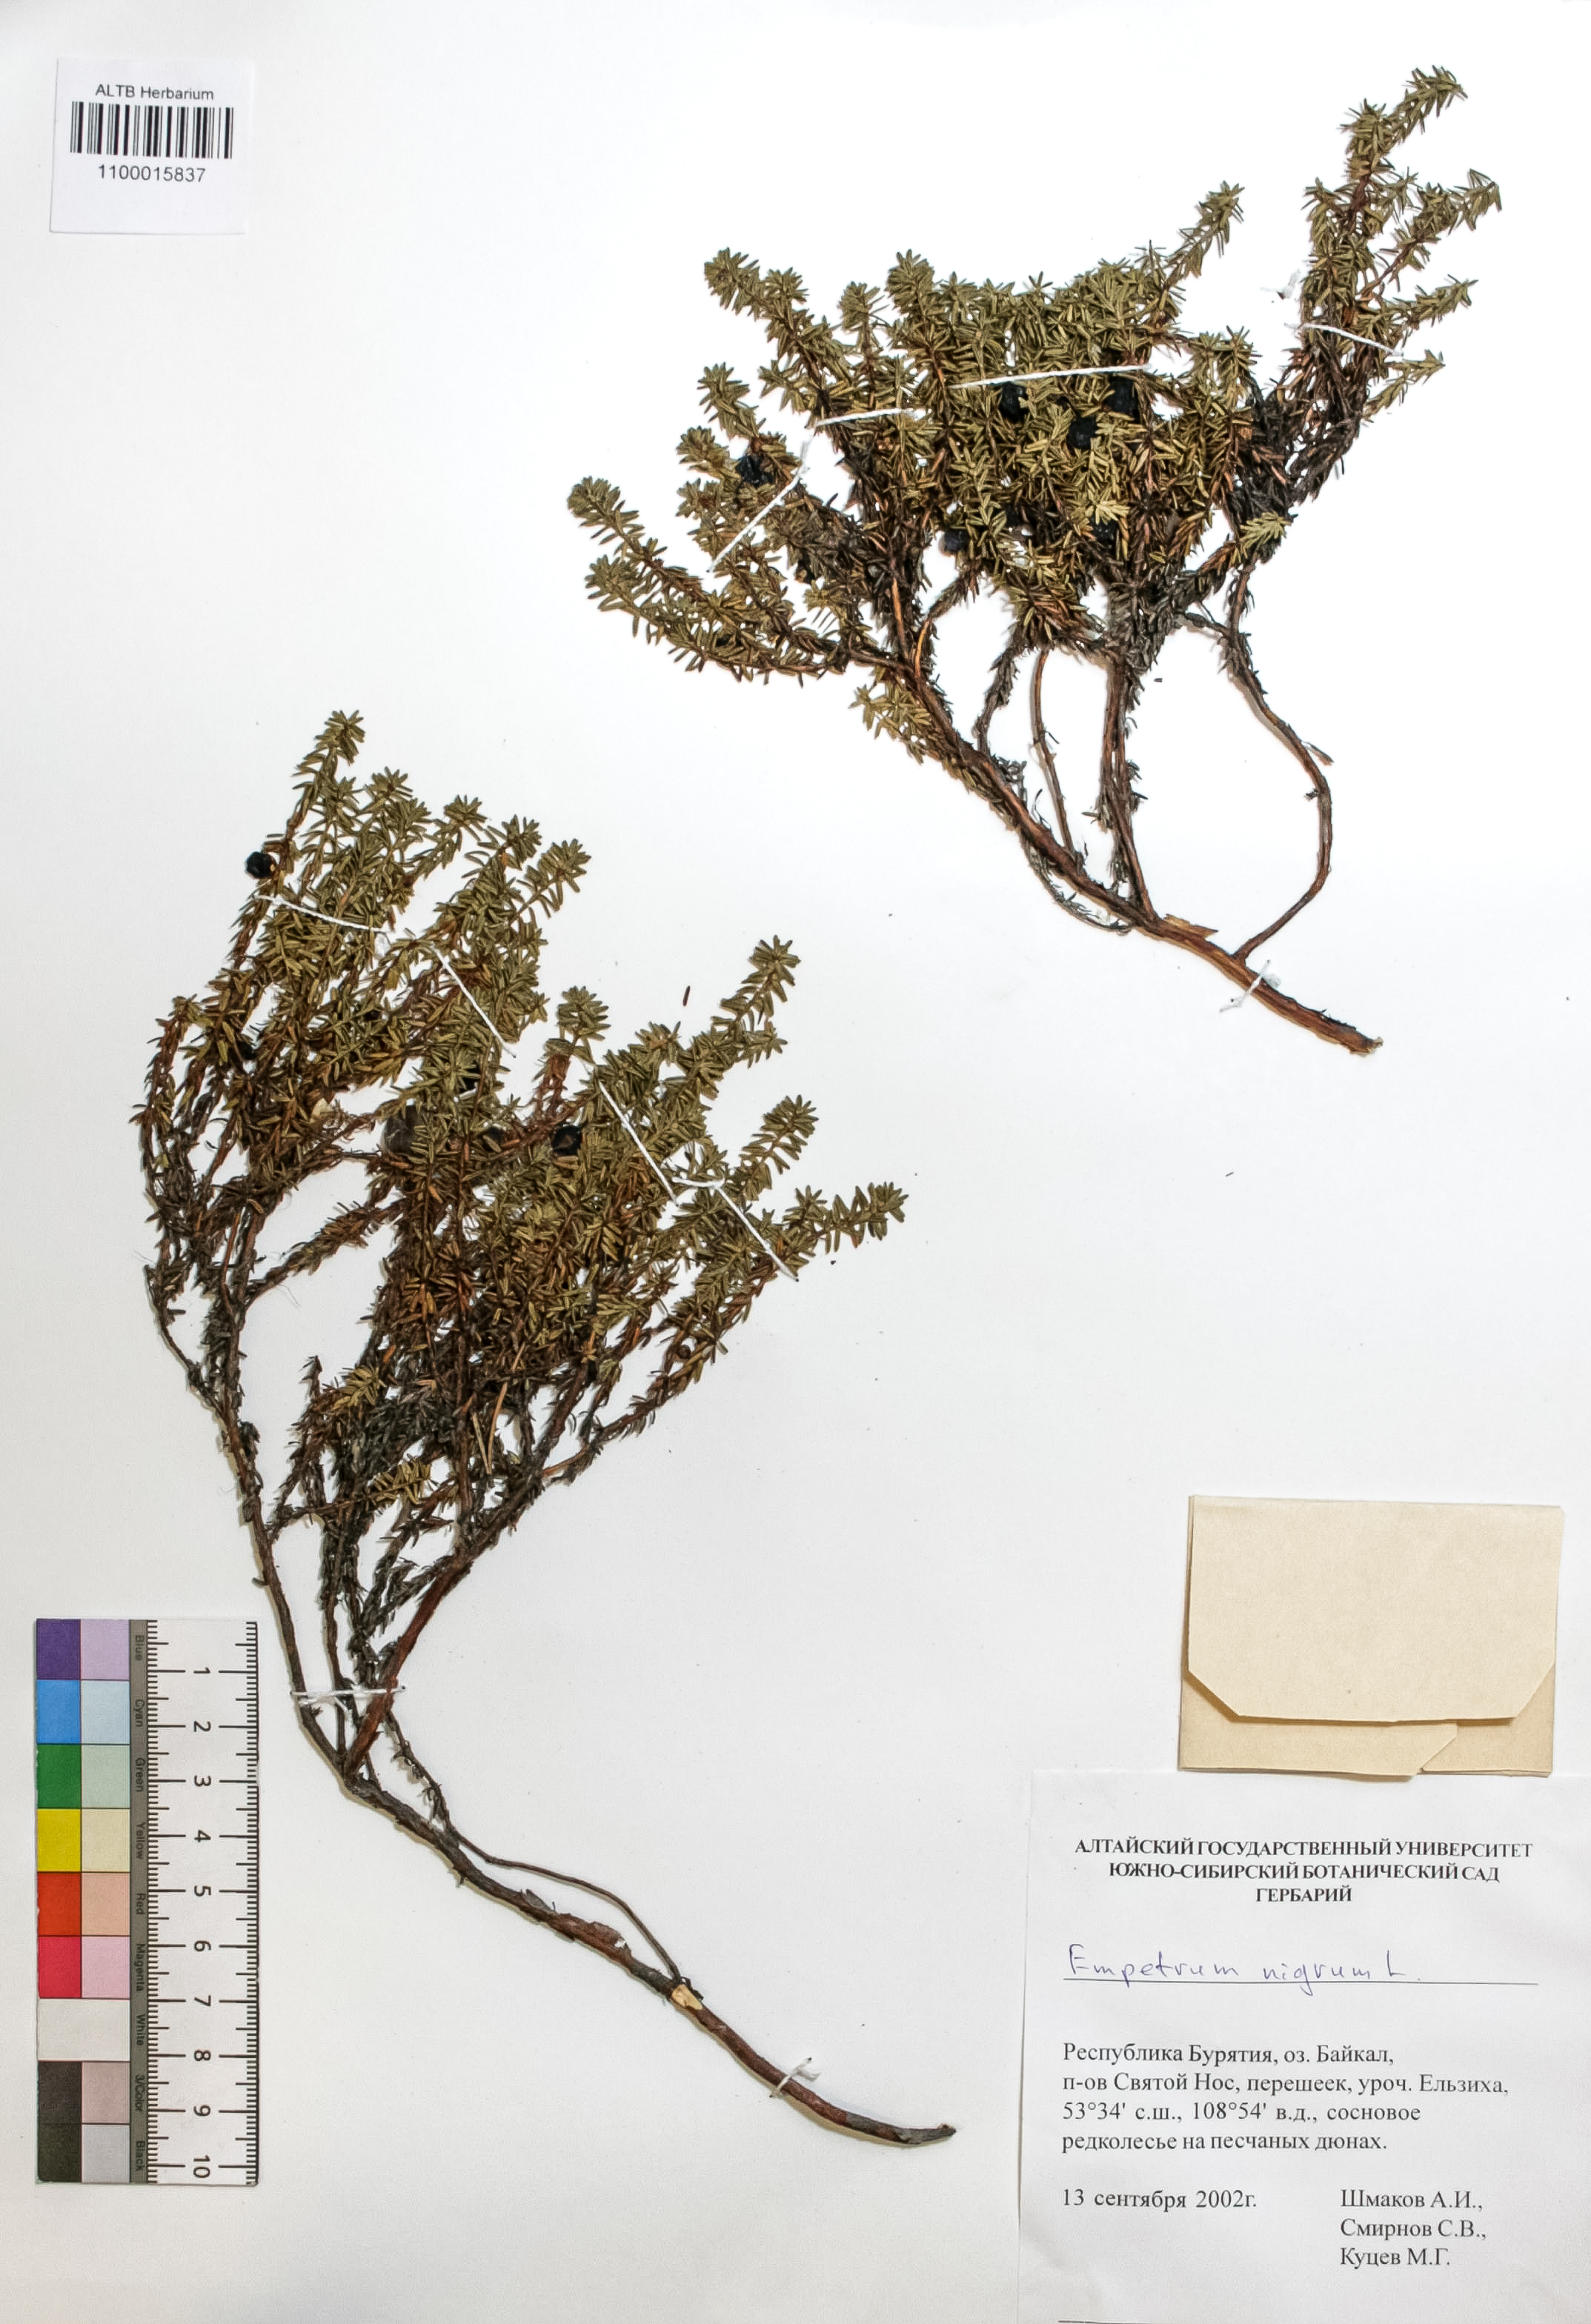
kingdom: Plantae
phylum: Tracheophyta
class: Magnoliopsida
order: Ericales
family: Ericaceae
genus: Empetrum
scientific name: Empetrum nigrum
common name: Black crowberry
